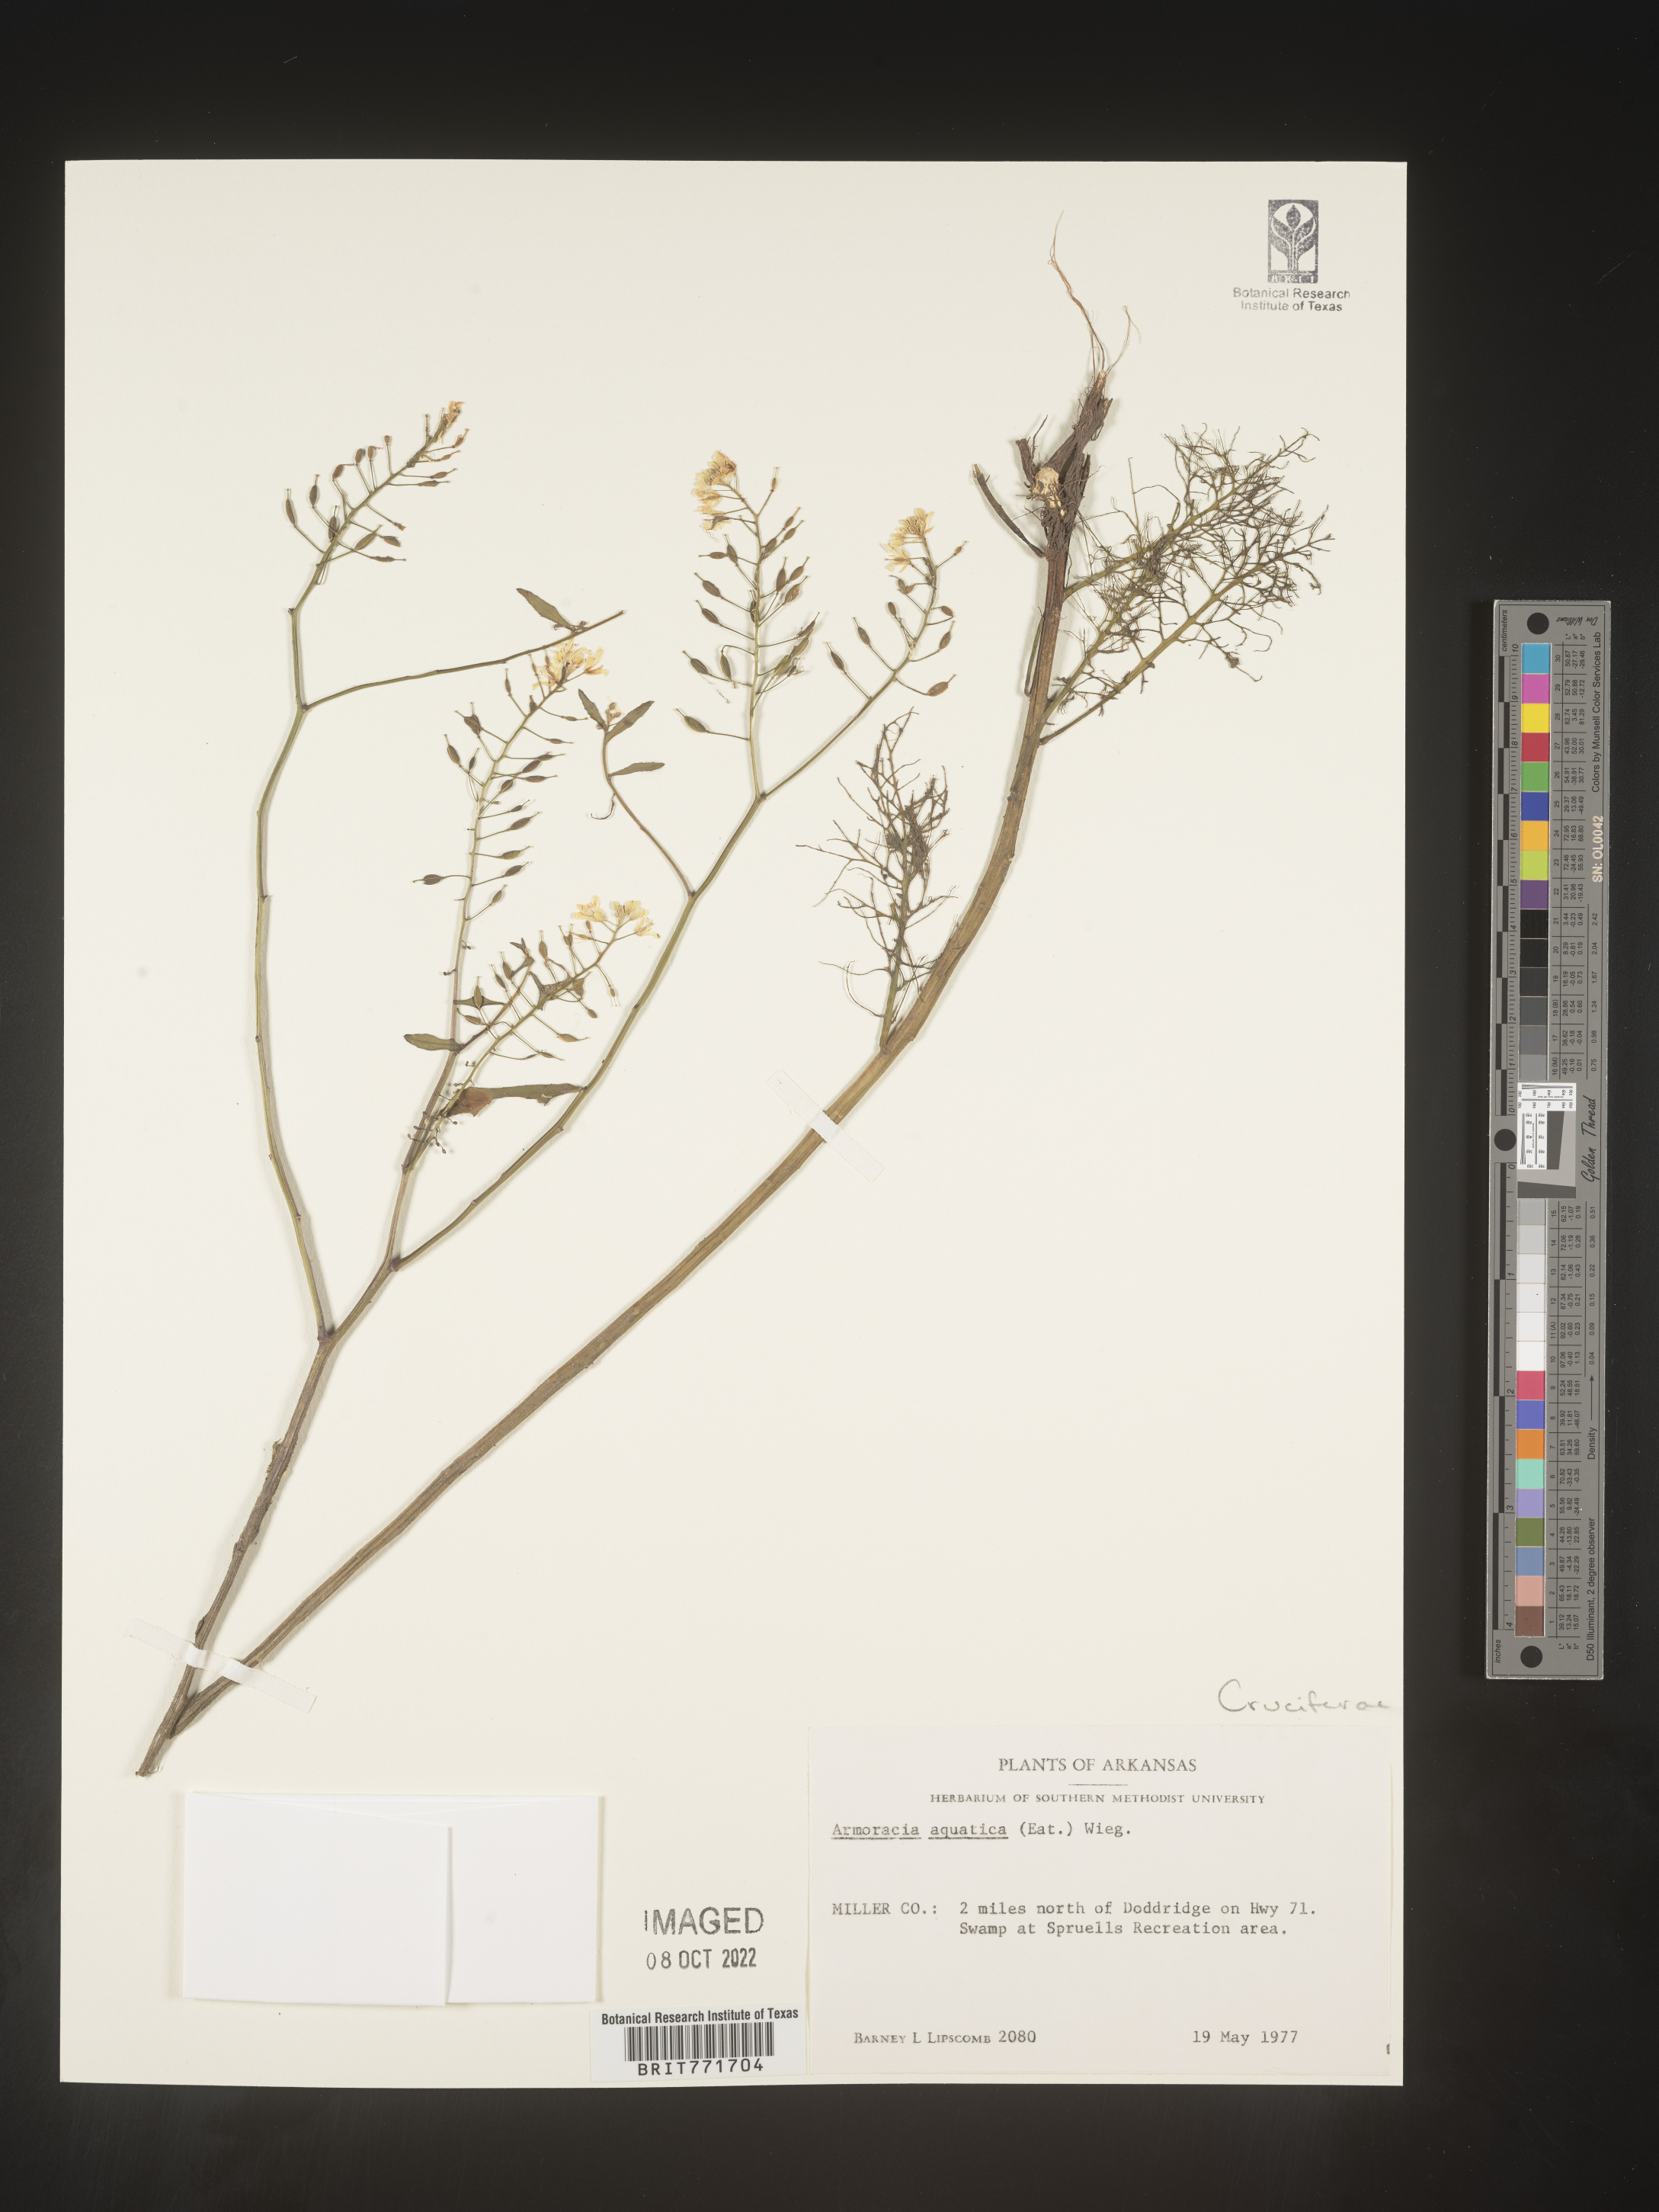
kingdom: Plantae
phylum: Tracheophyta
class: Magnoliopsida
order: Brassicales
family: Brassicaceae
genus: Armoracia
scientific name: Armoracia
